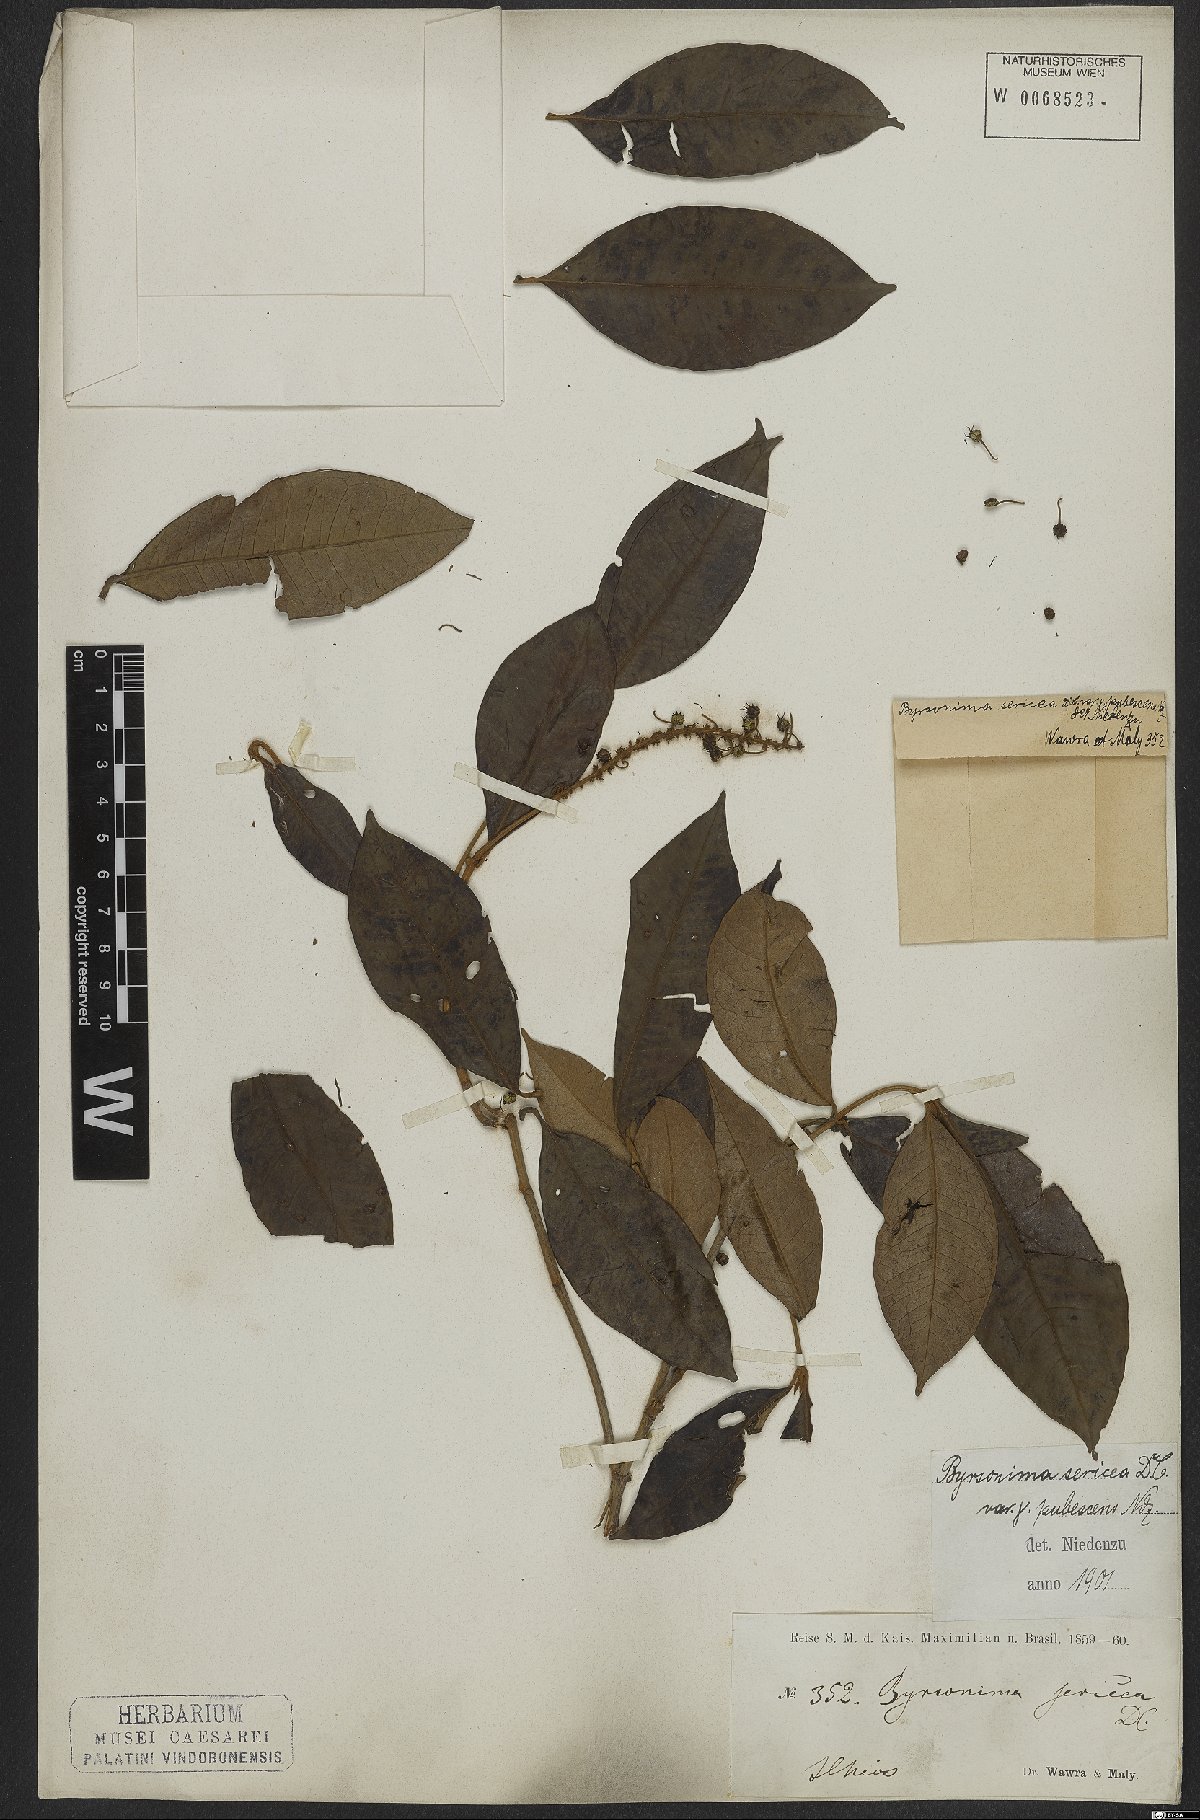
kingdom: Plantae
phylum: Tracheophyta
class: Magnoliopsida
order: Malpighiales
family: Malpighiaceae
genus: Byrsonima
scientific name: Byrsonima sericea
